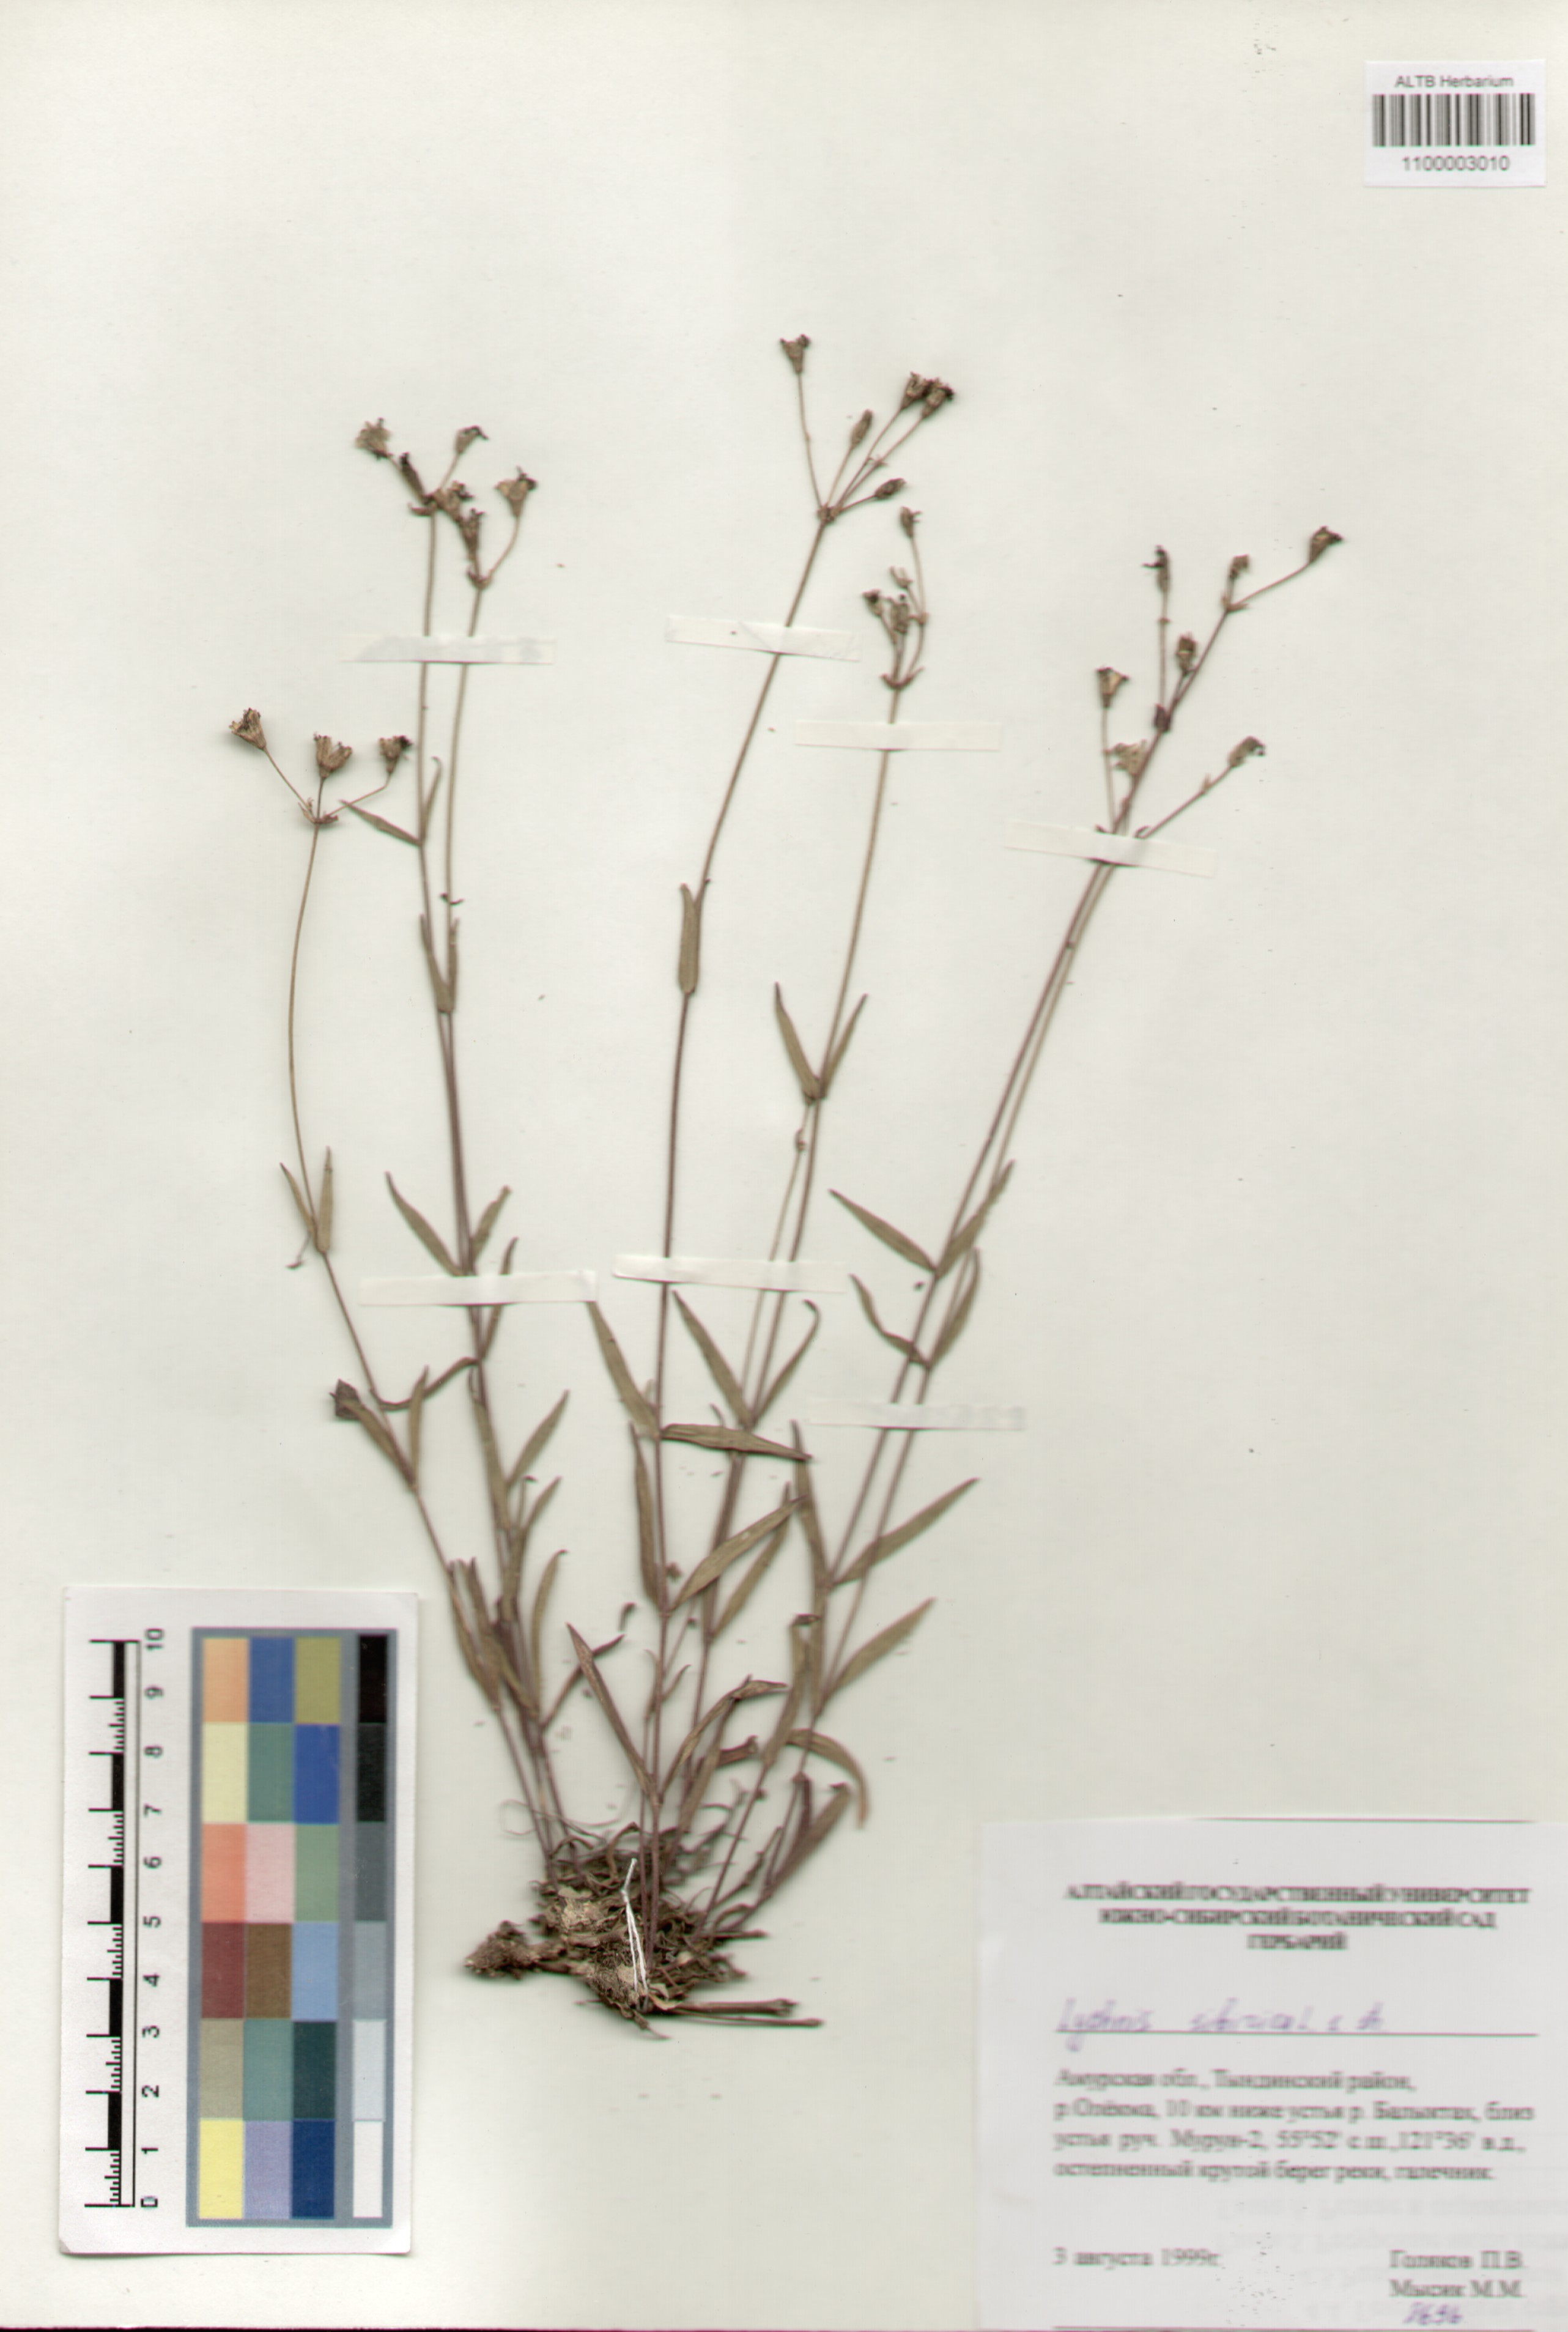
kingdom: Plantae
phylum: Tracheophyta
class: Magnoliopsida
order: Caryophyllales
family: Caryophyllaceae
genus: Silene
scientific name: Silene orientalimongolica
